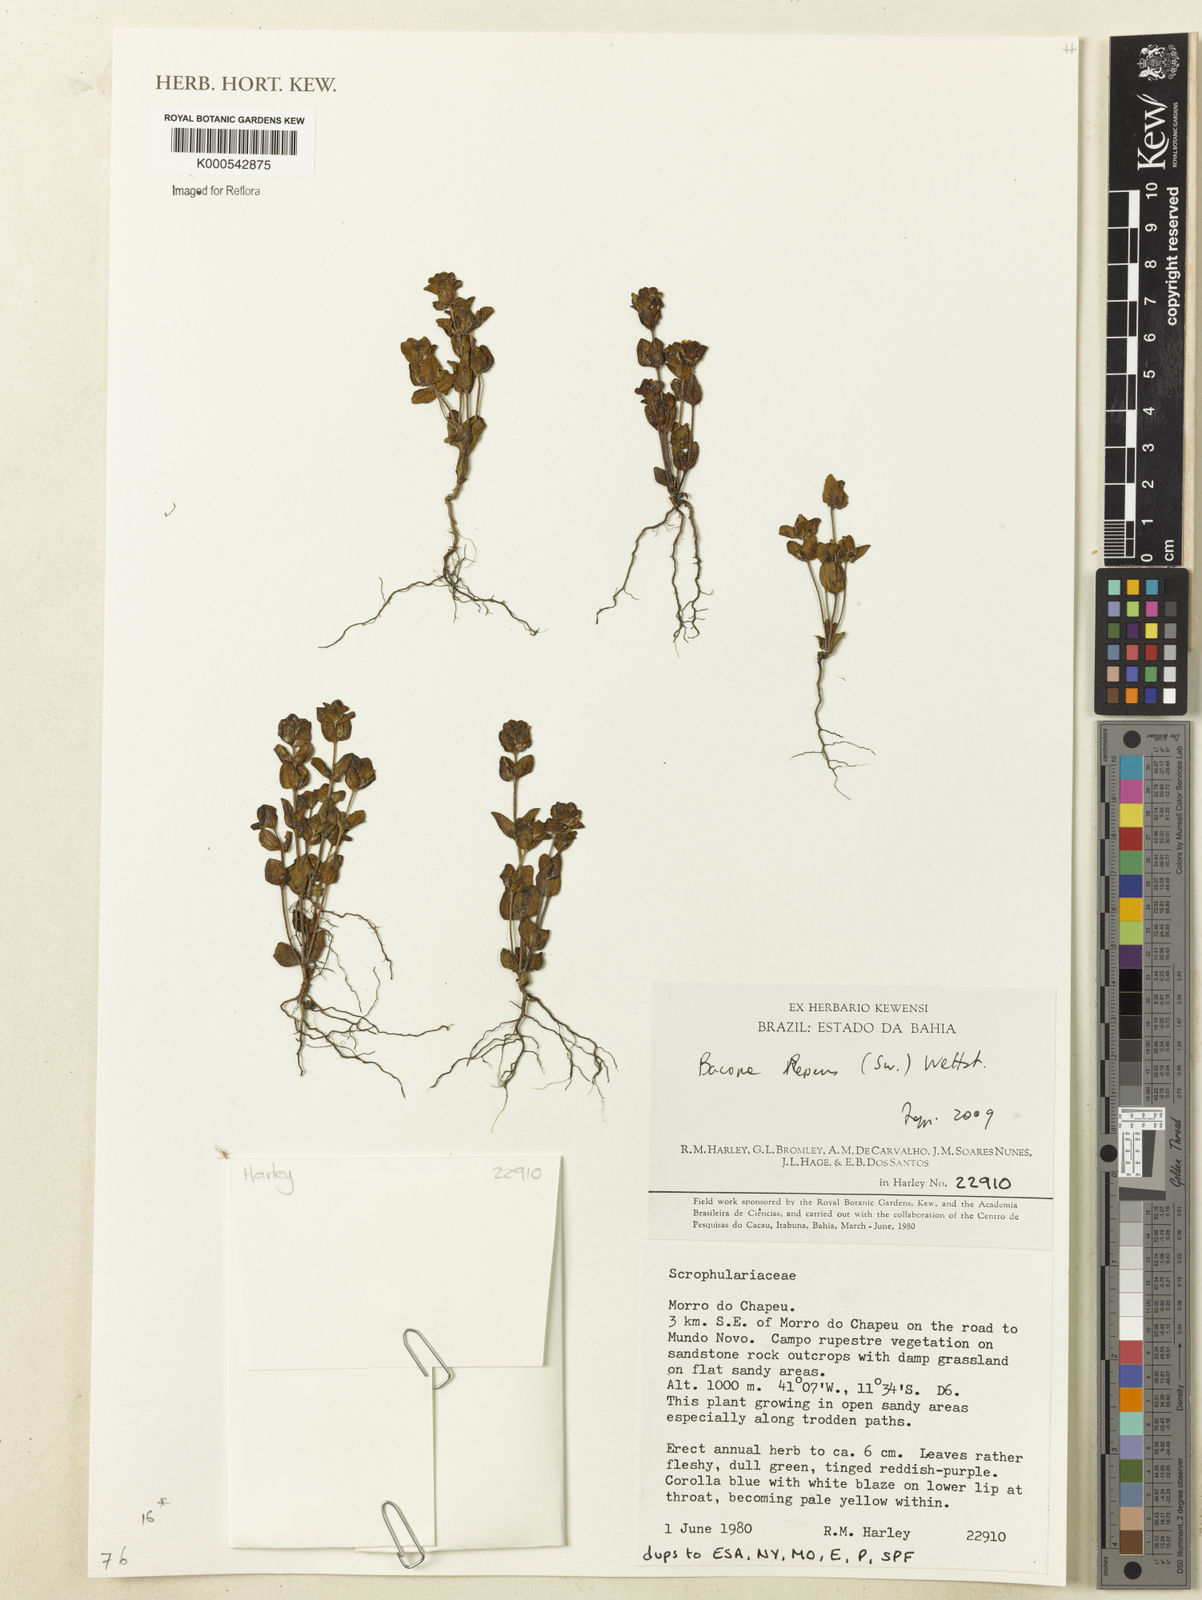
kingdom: Plantae
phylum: Tracheophyta
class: Magnoliopsida
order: Lamiales
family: Plantaginaceae
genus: Bacopa
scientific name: Bacopa repens
